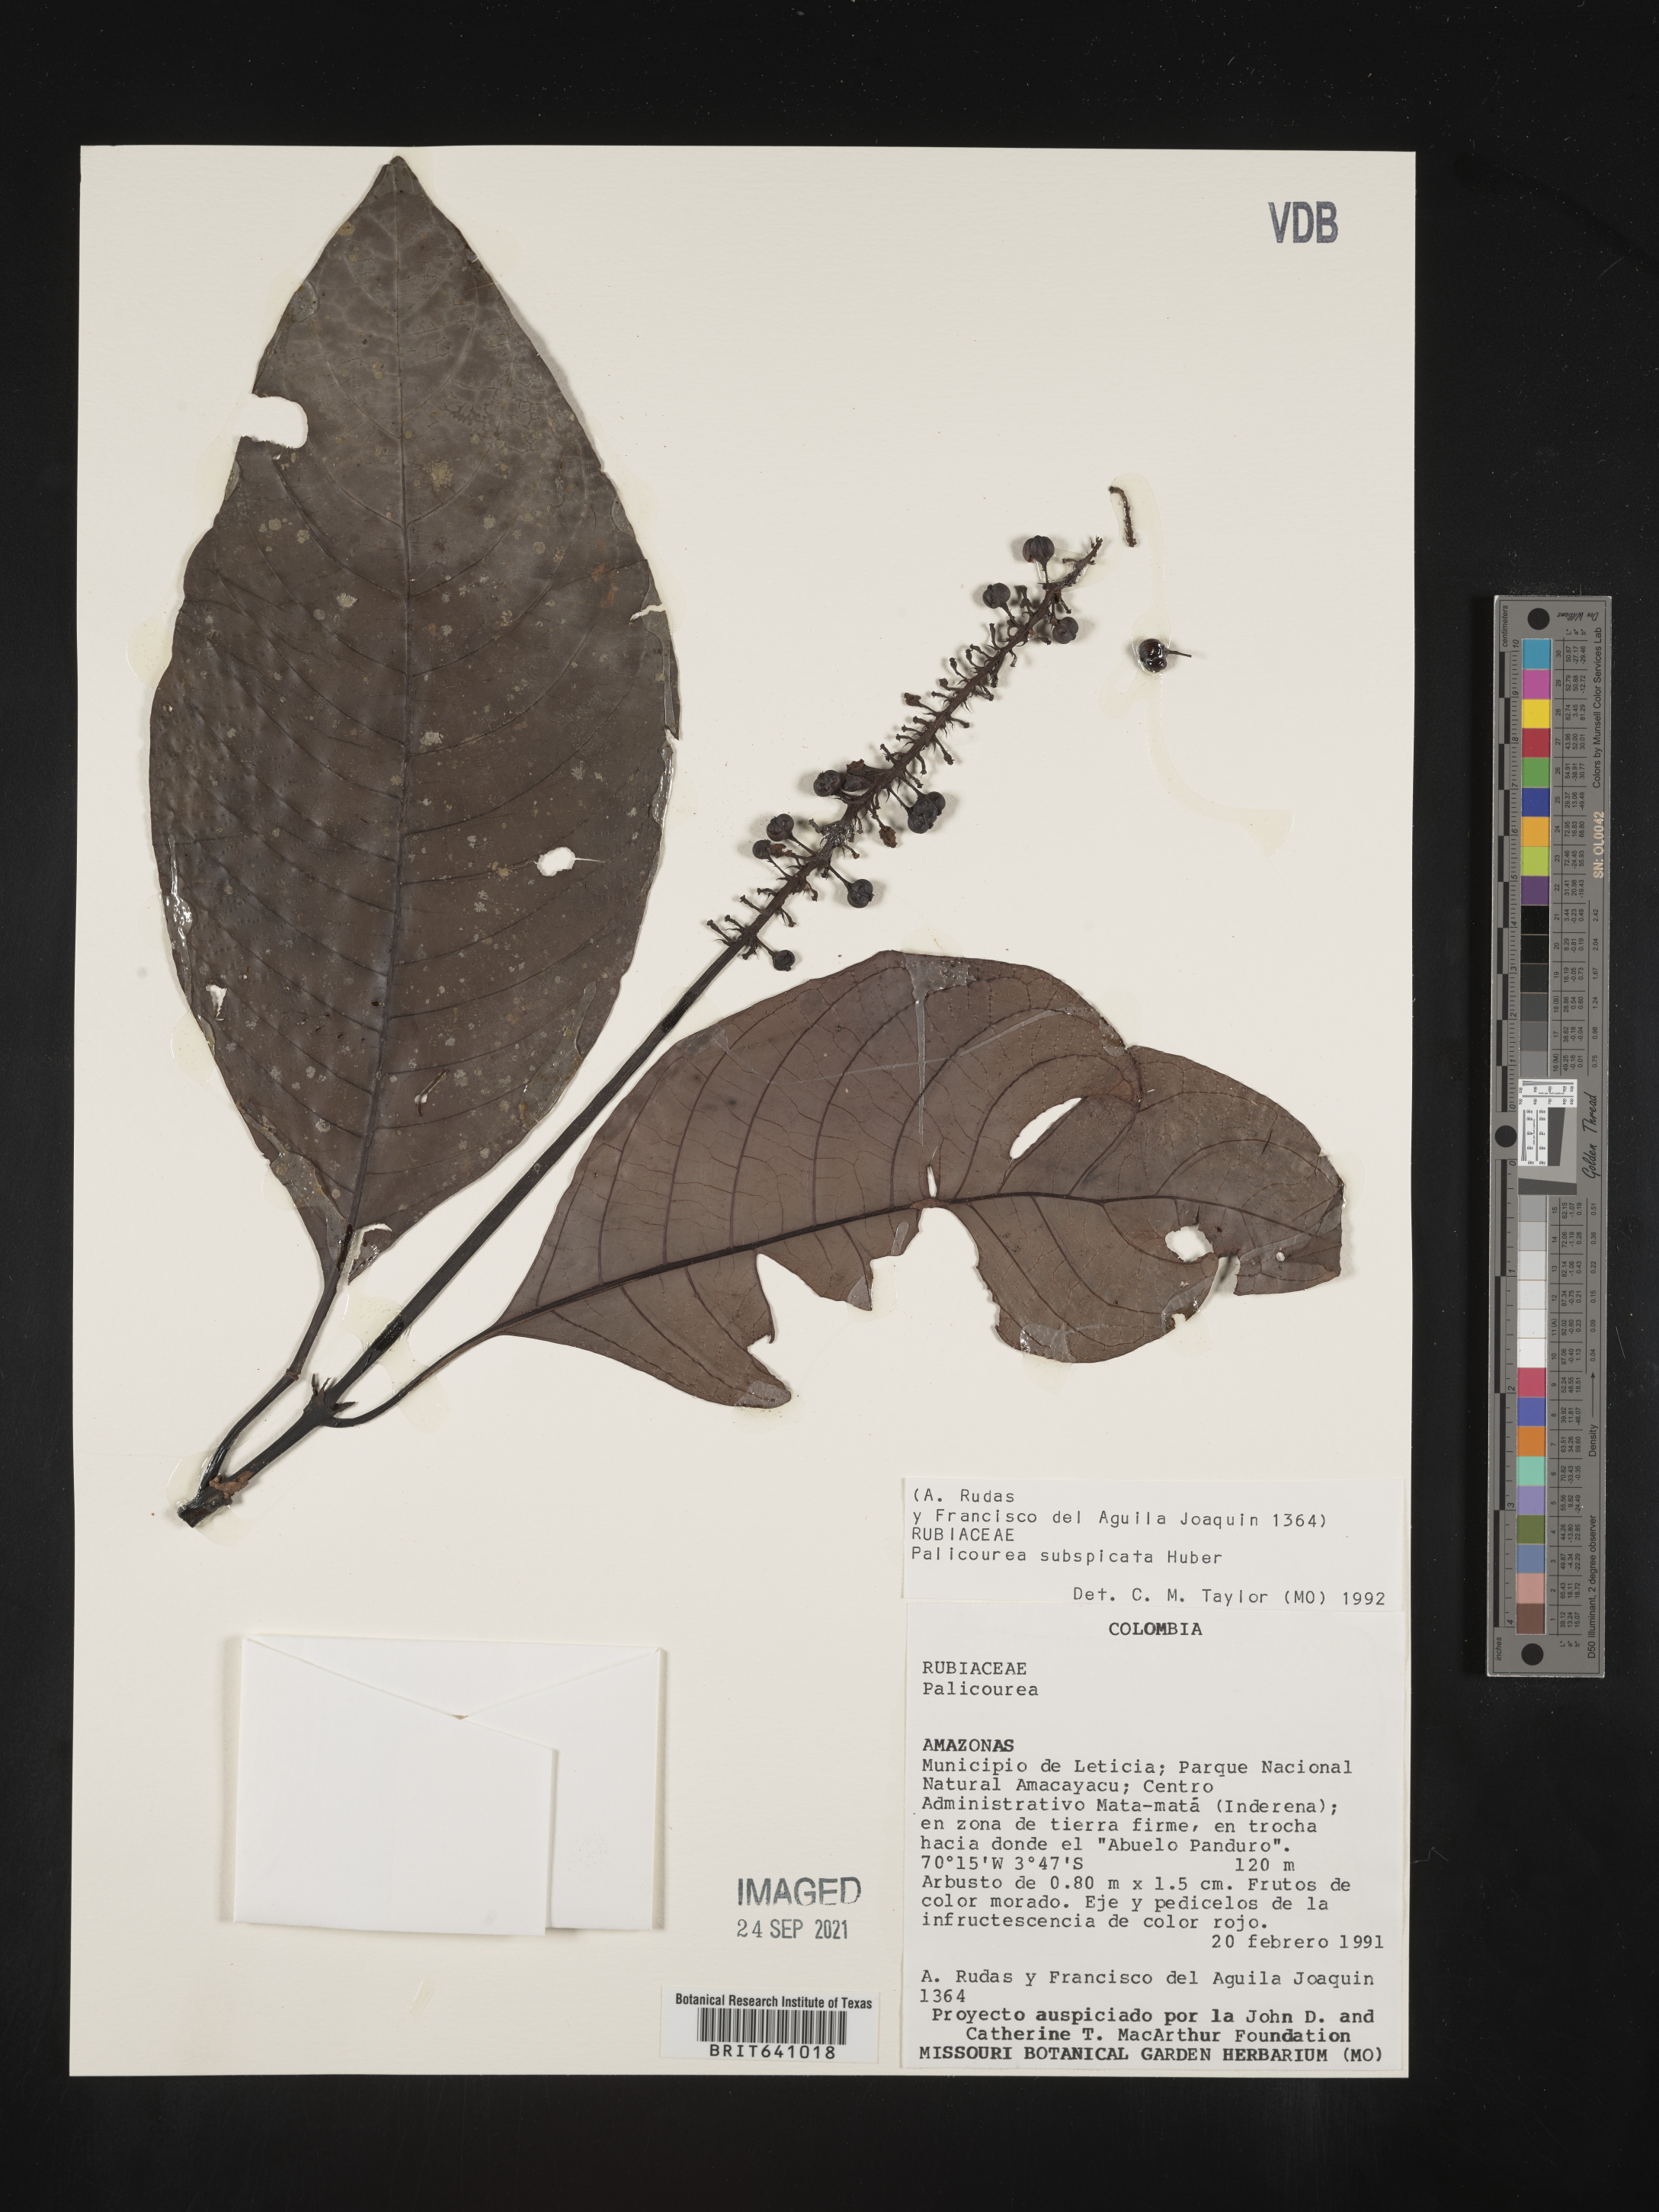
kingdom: Plantae
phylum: Tracheophyta
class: Magnoliopsida
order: Gentianales
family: Rubiaceae
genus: Palicourea
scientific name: Palicourea
